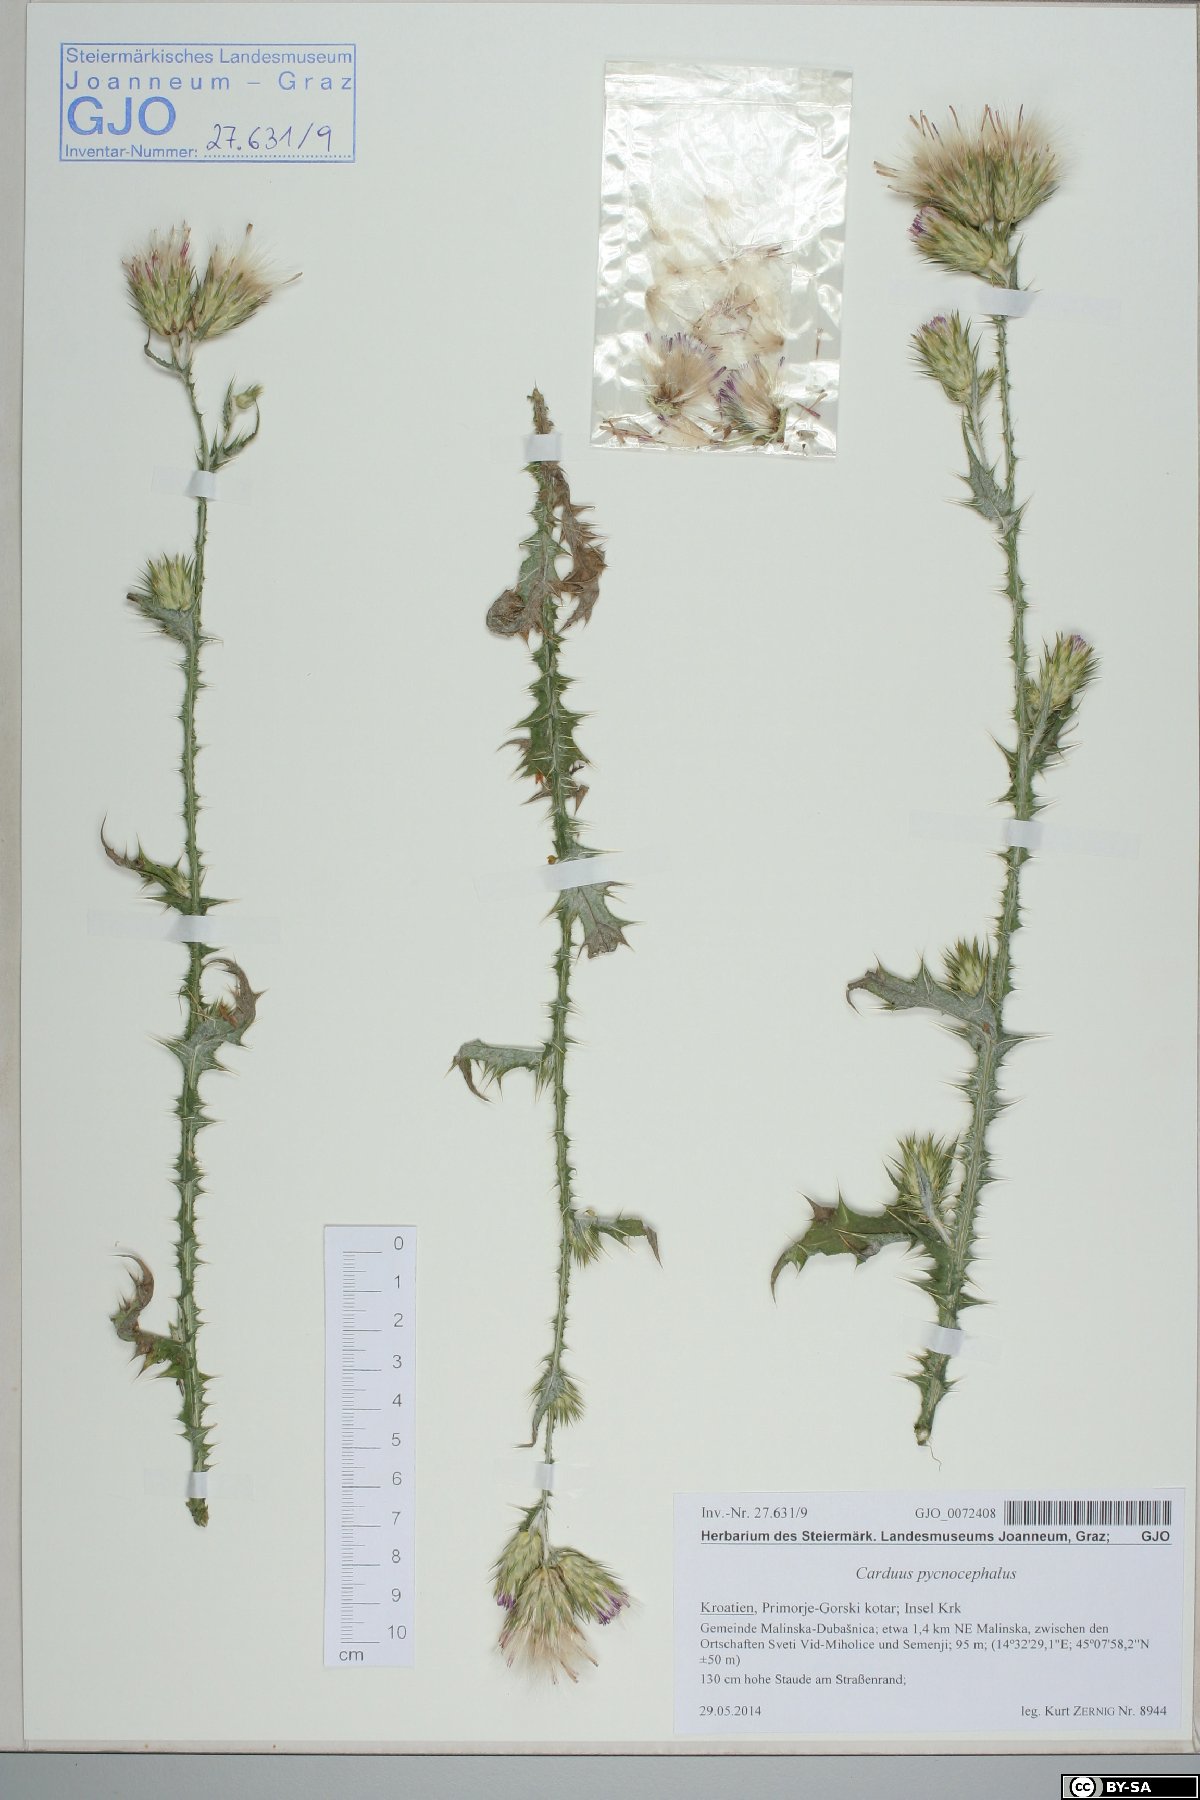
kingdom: Plantae
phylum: Tracheophyta
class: Magnoliopsida
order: Asterales
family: Asteraceae
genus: Carduus
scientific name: Carduus pycnocephalus
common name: Plymouth thistle
